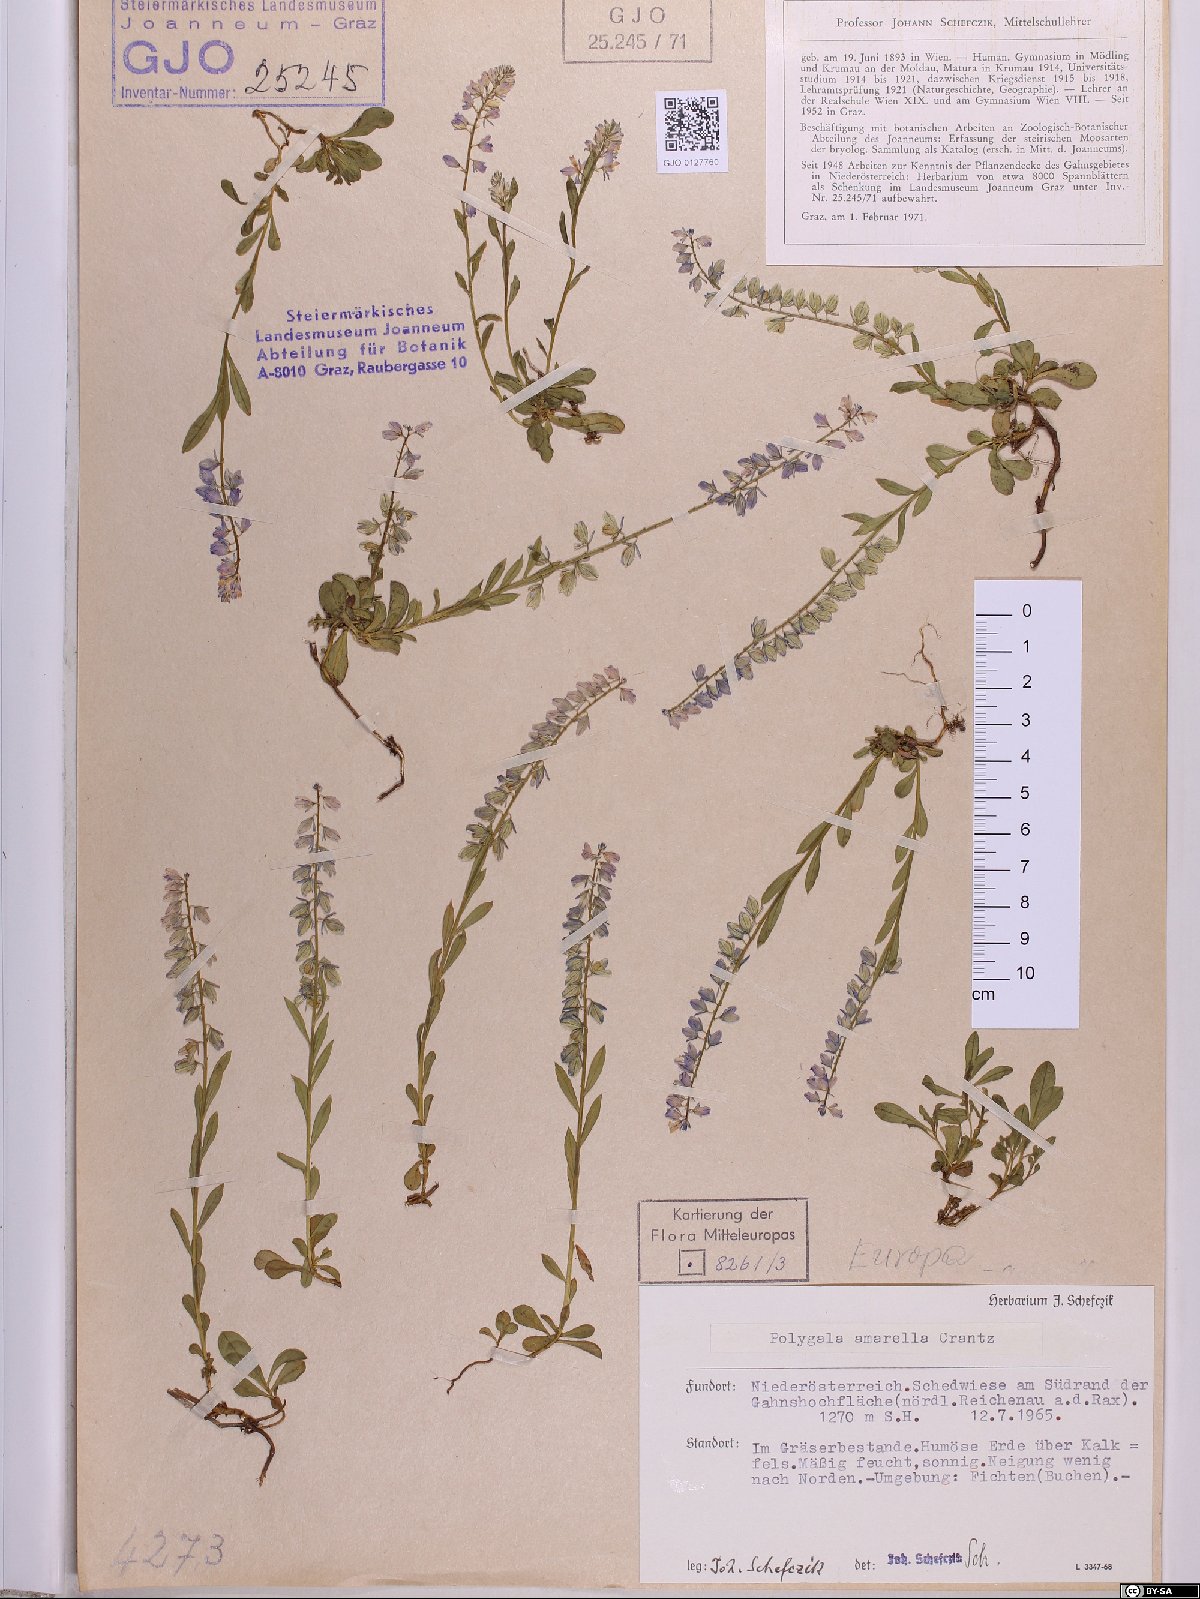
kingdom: Plantae
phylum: Tracheophyta
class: Magnoliopsida
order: Fabales
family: Polygalaceae
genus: Polygala
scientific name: Polygala amarella
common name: Dwarf milkwort
